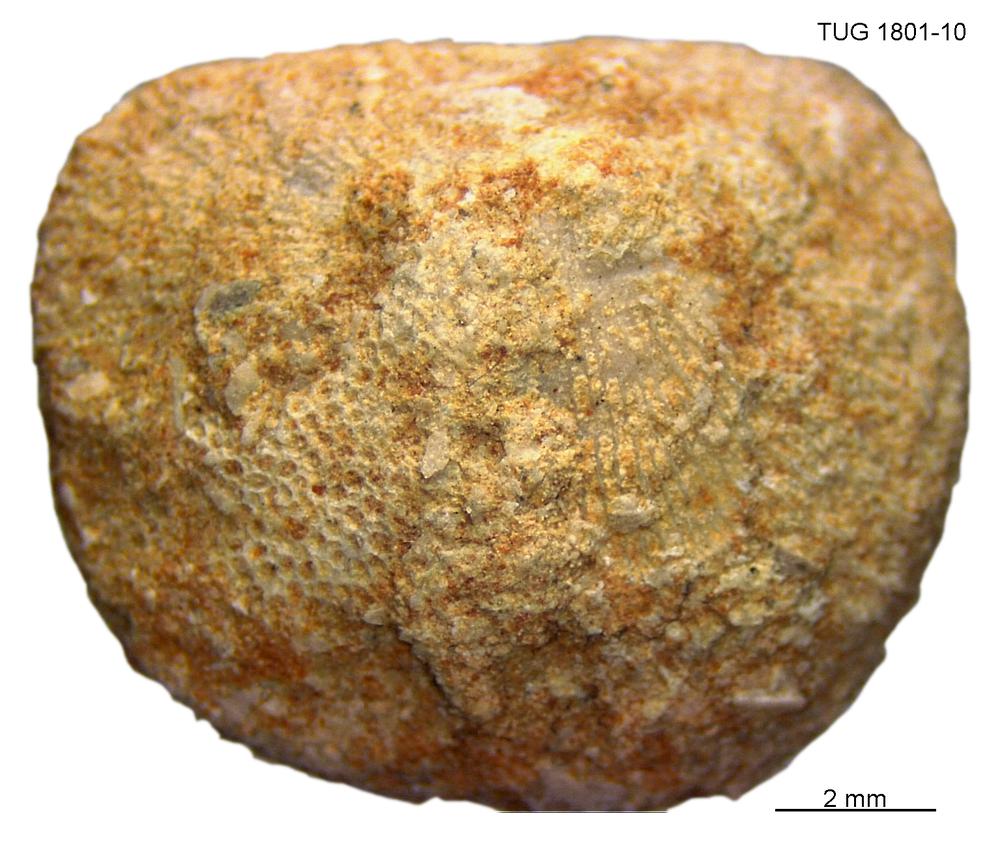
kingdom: Animalia
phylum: Brachiopoda
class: Craniata
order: Craniida
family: Craniidae
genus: Philhedra
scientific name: Philhedra
